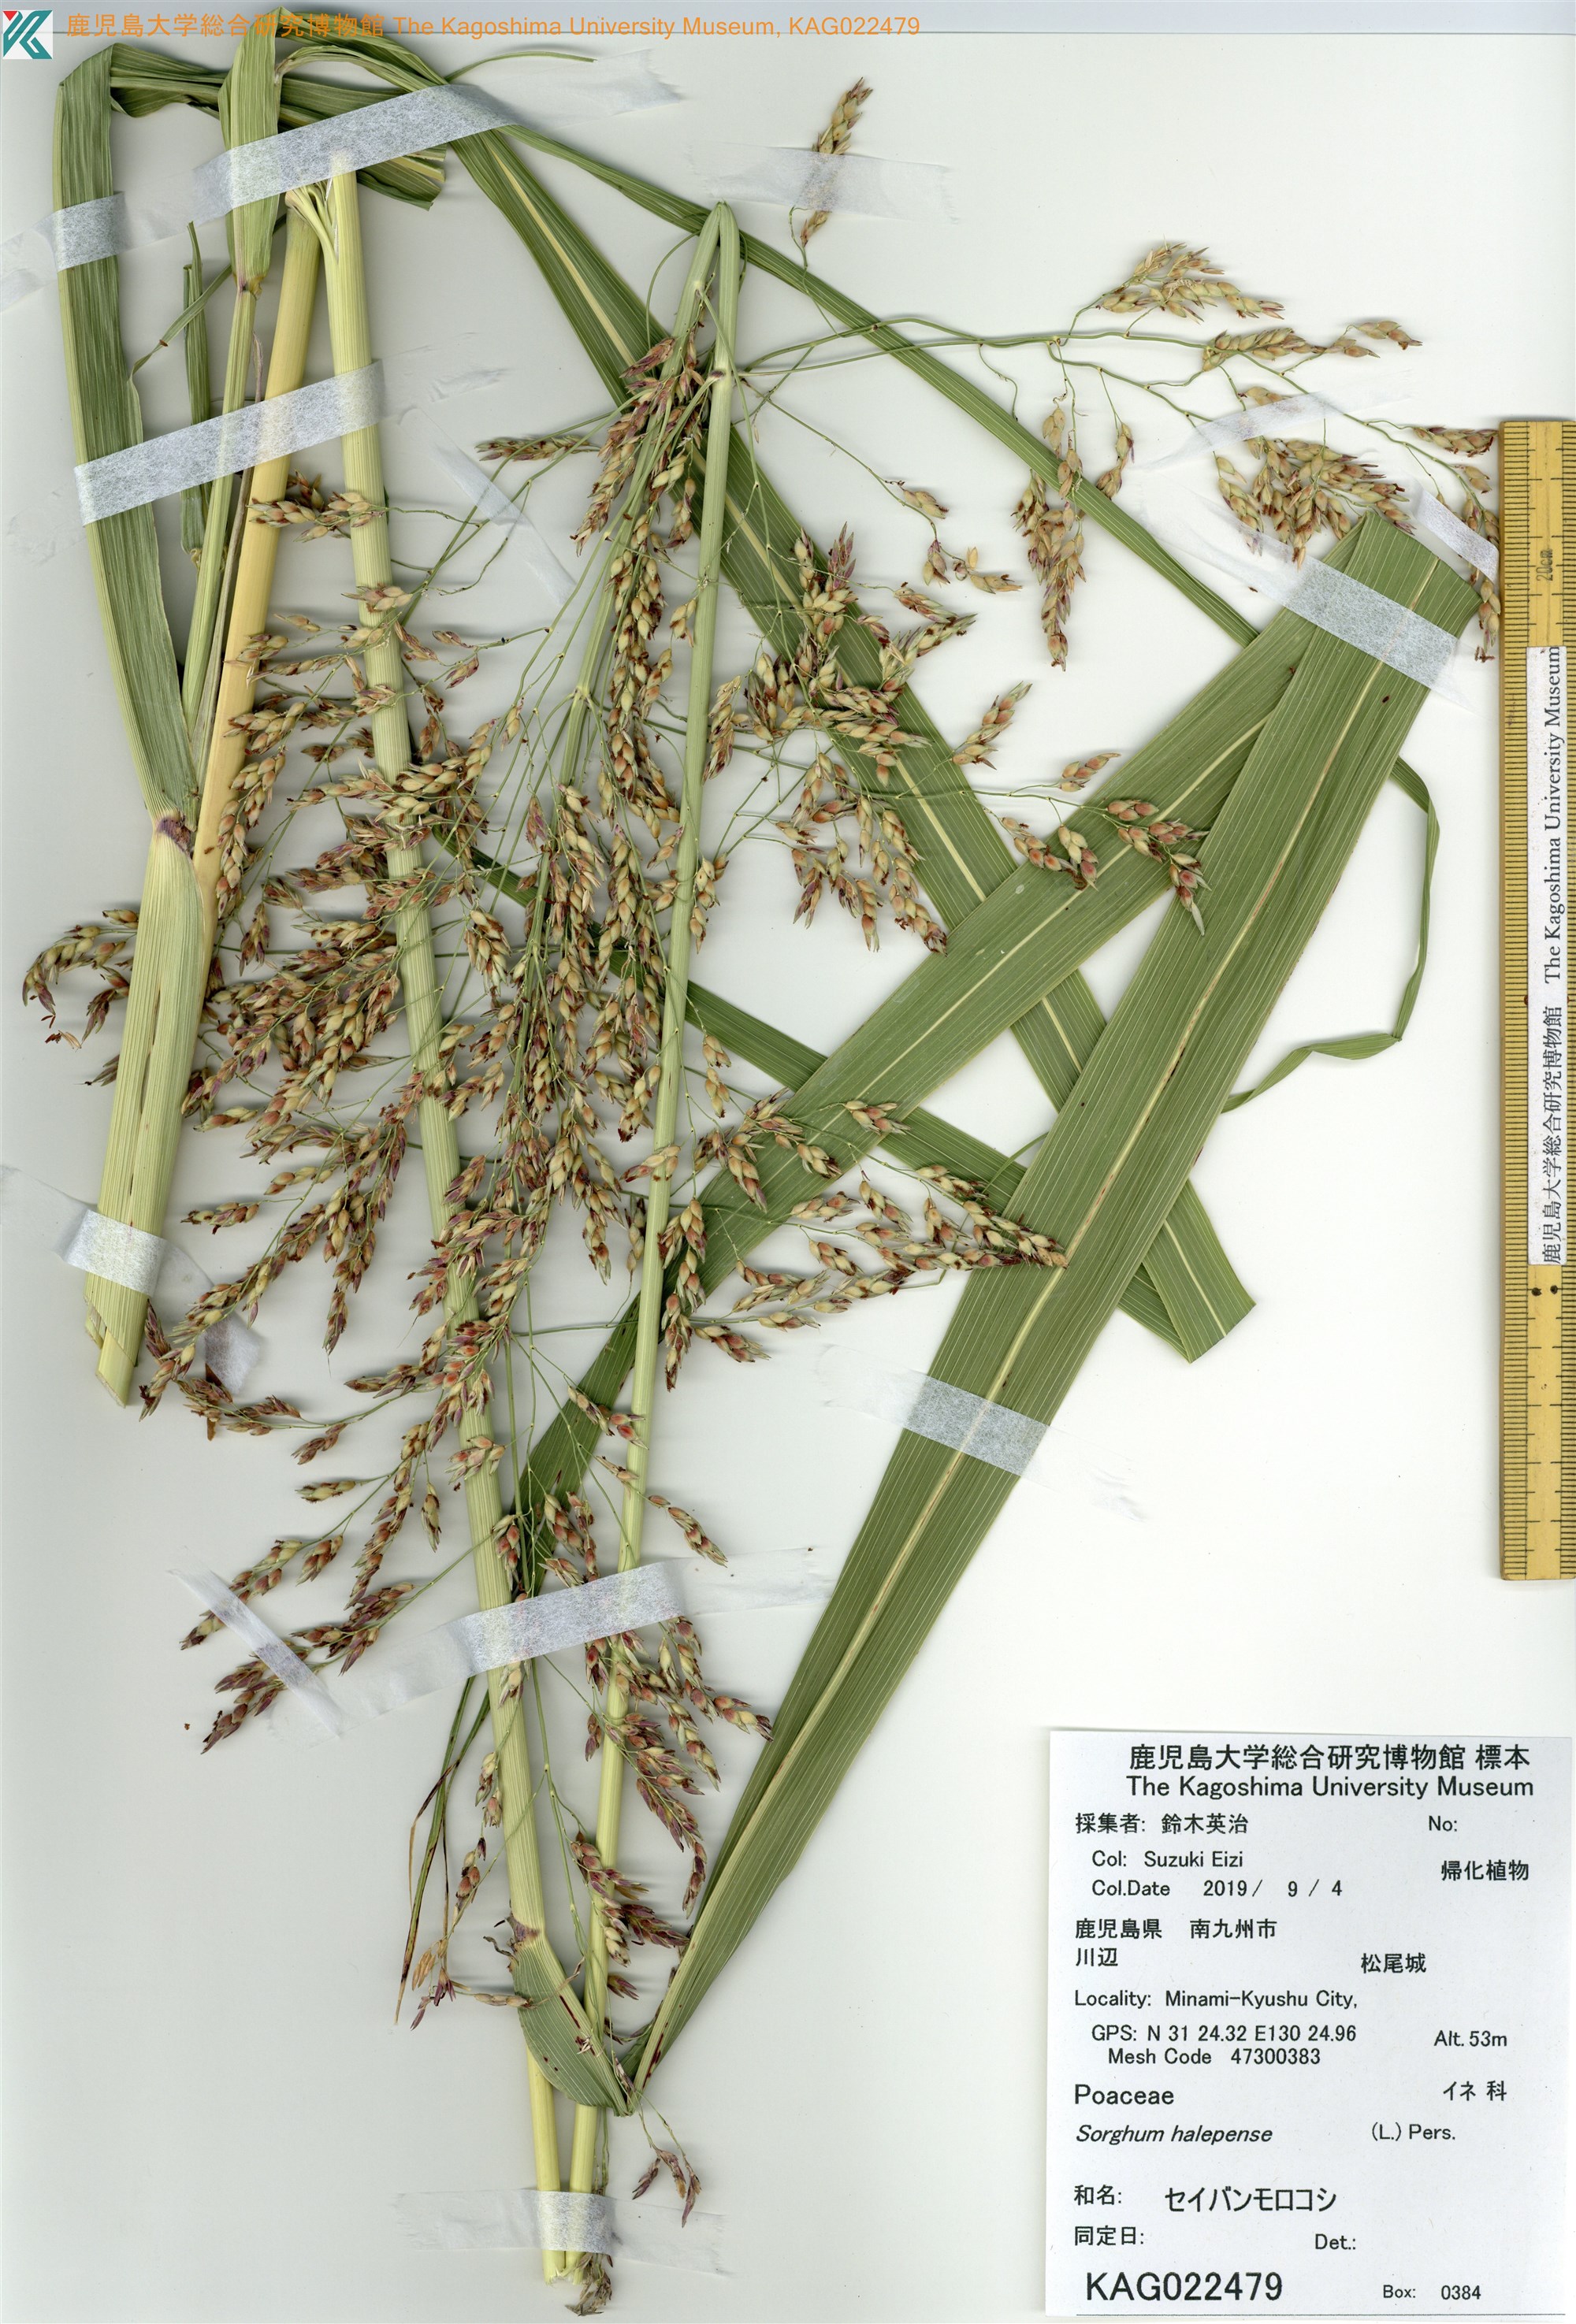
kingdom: Plantae
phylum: Tracheophyta
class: Liliopsida
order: Poales
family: Poaceae
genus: Sorghum
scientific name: Sorghum halepense
